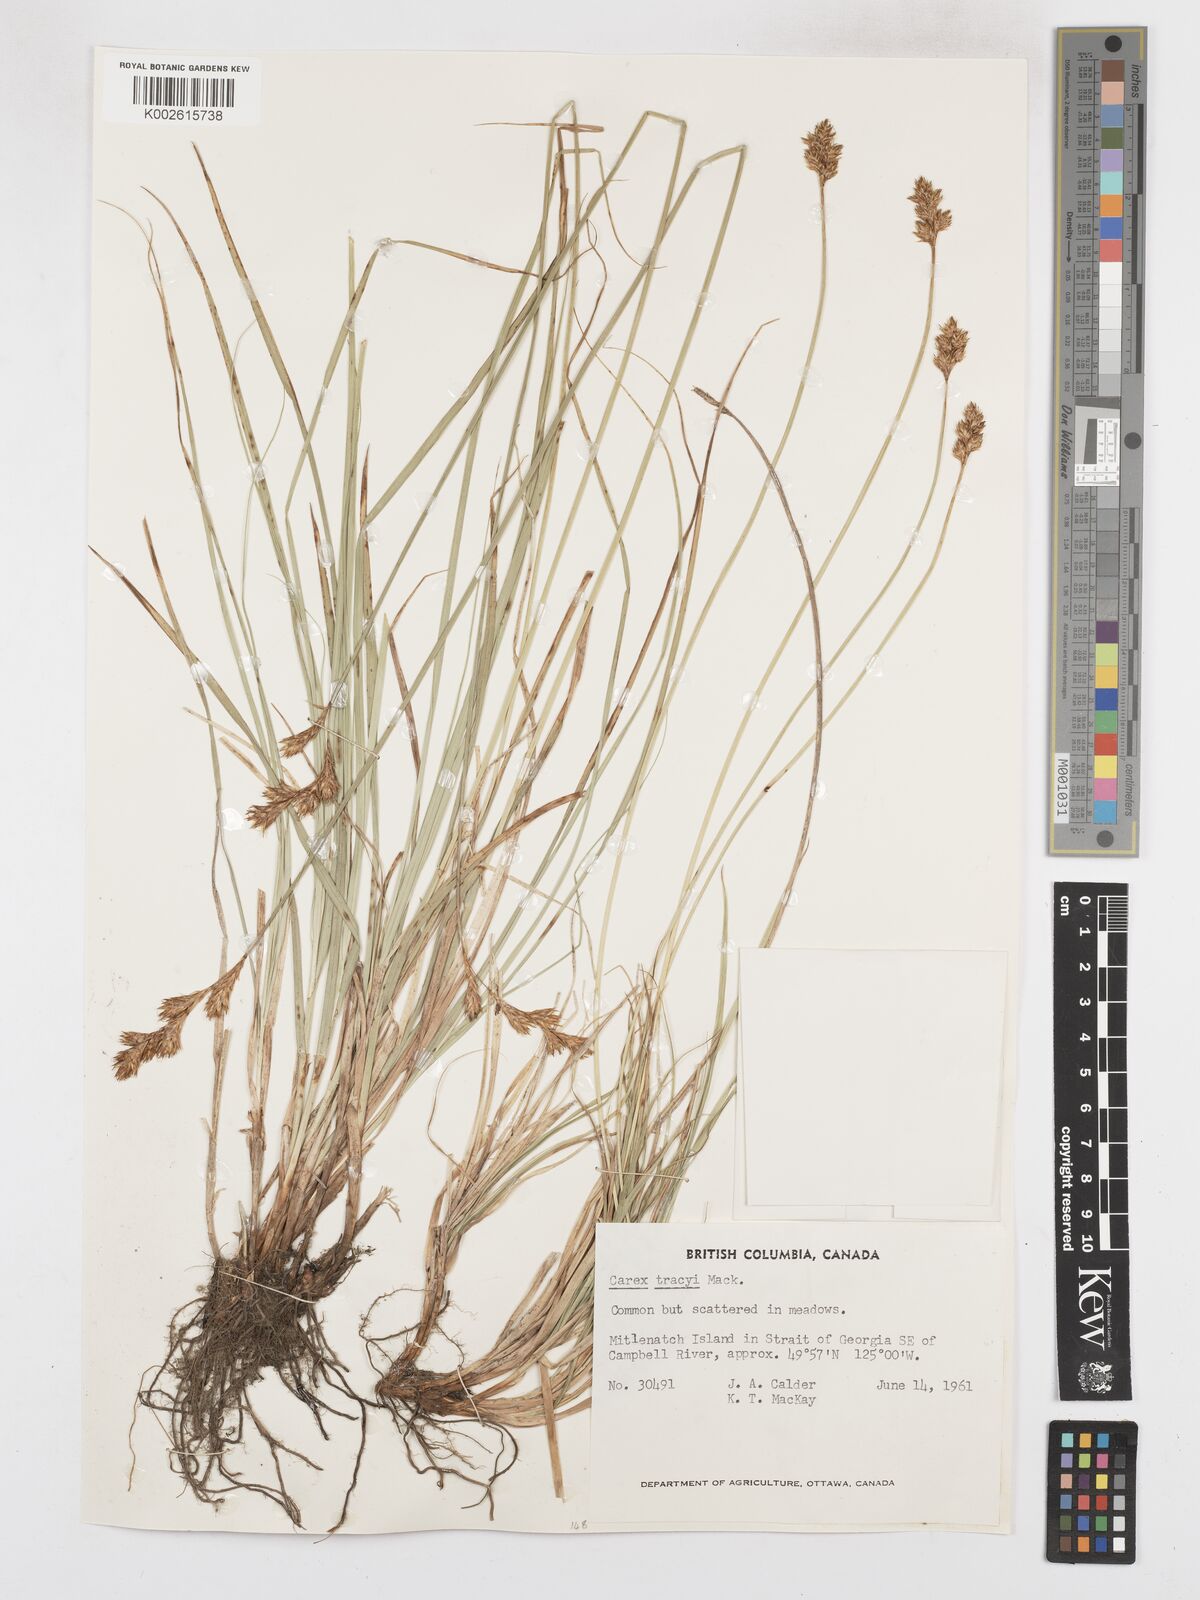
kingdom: Plantae
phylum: Tracheophyta
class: Liliopsida
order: Poales
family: Cyperaceae
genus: Carex
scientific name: Carex leporina
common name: Oval sedge
